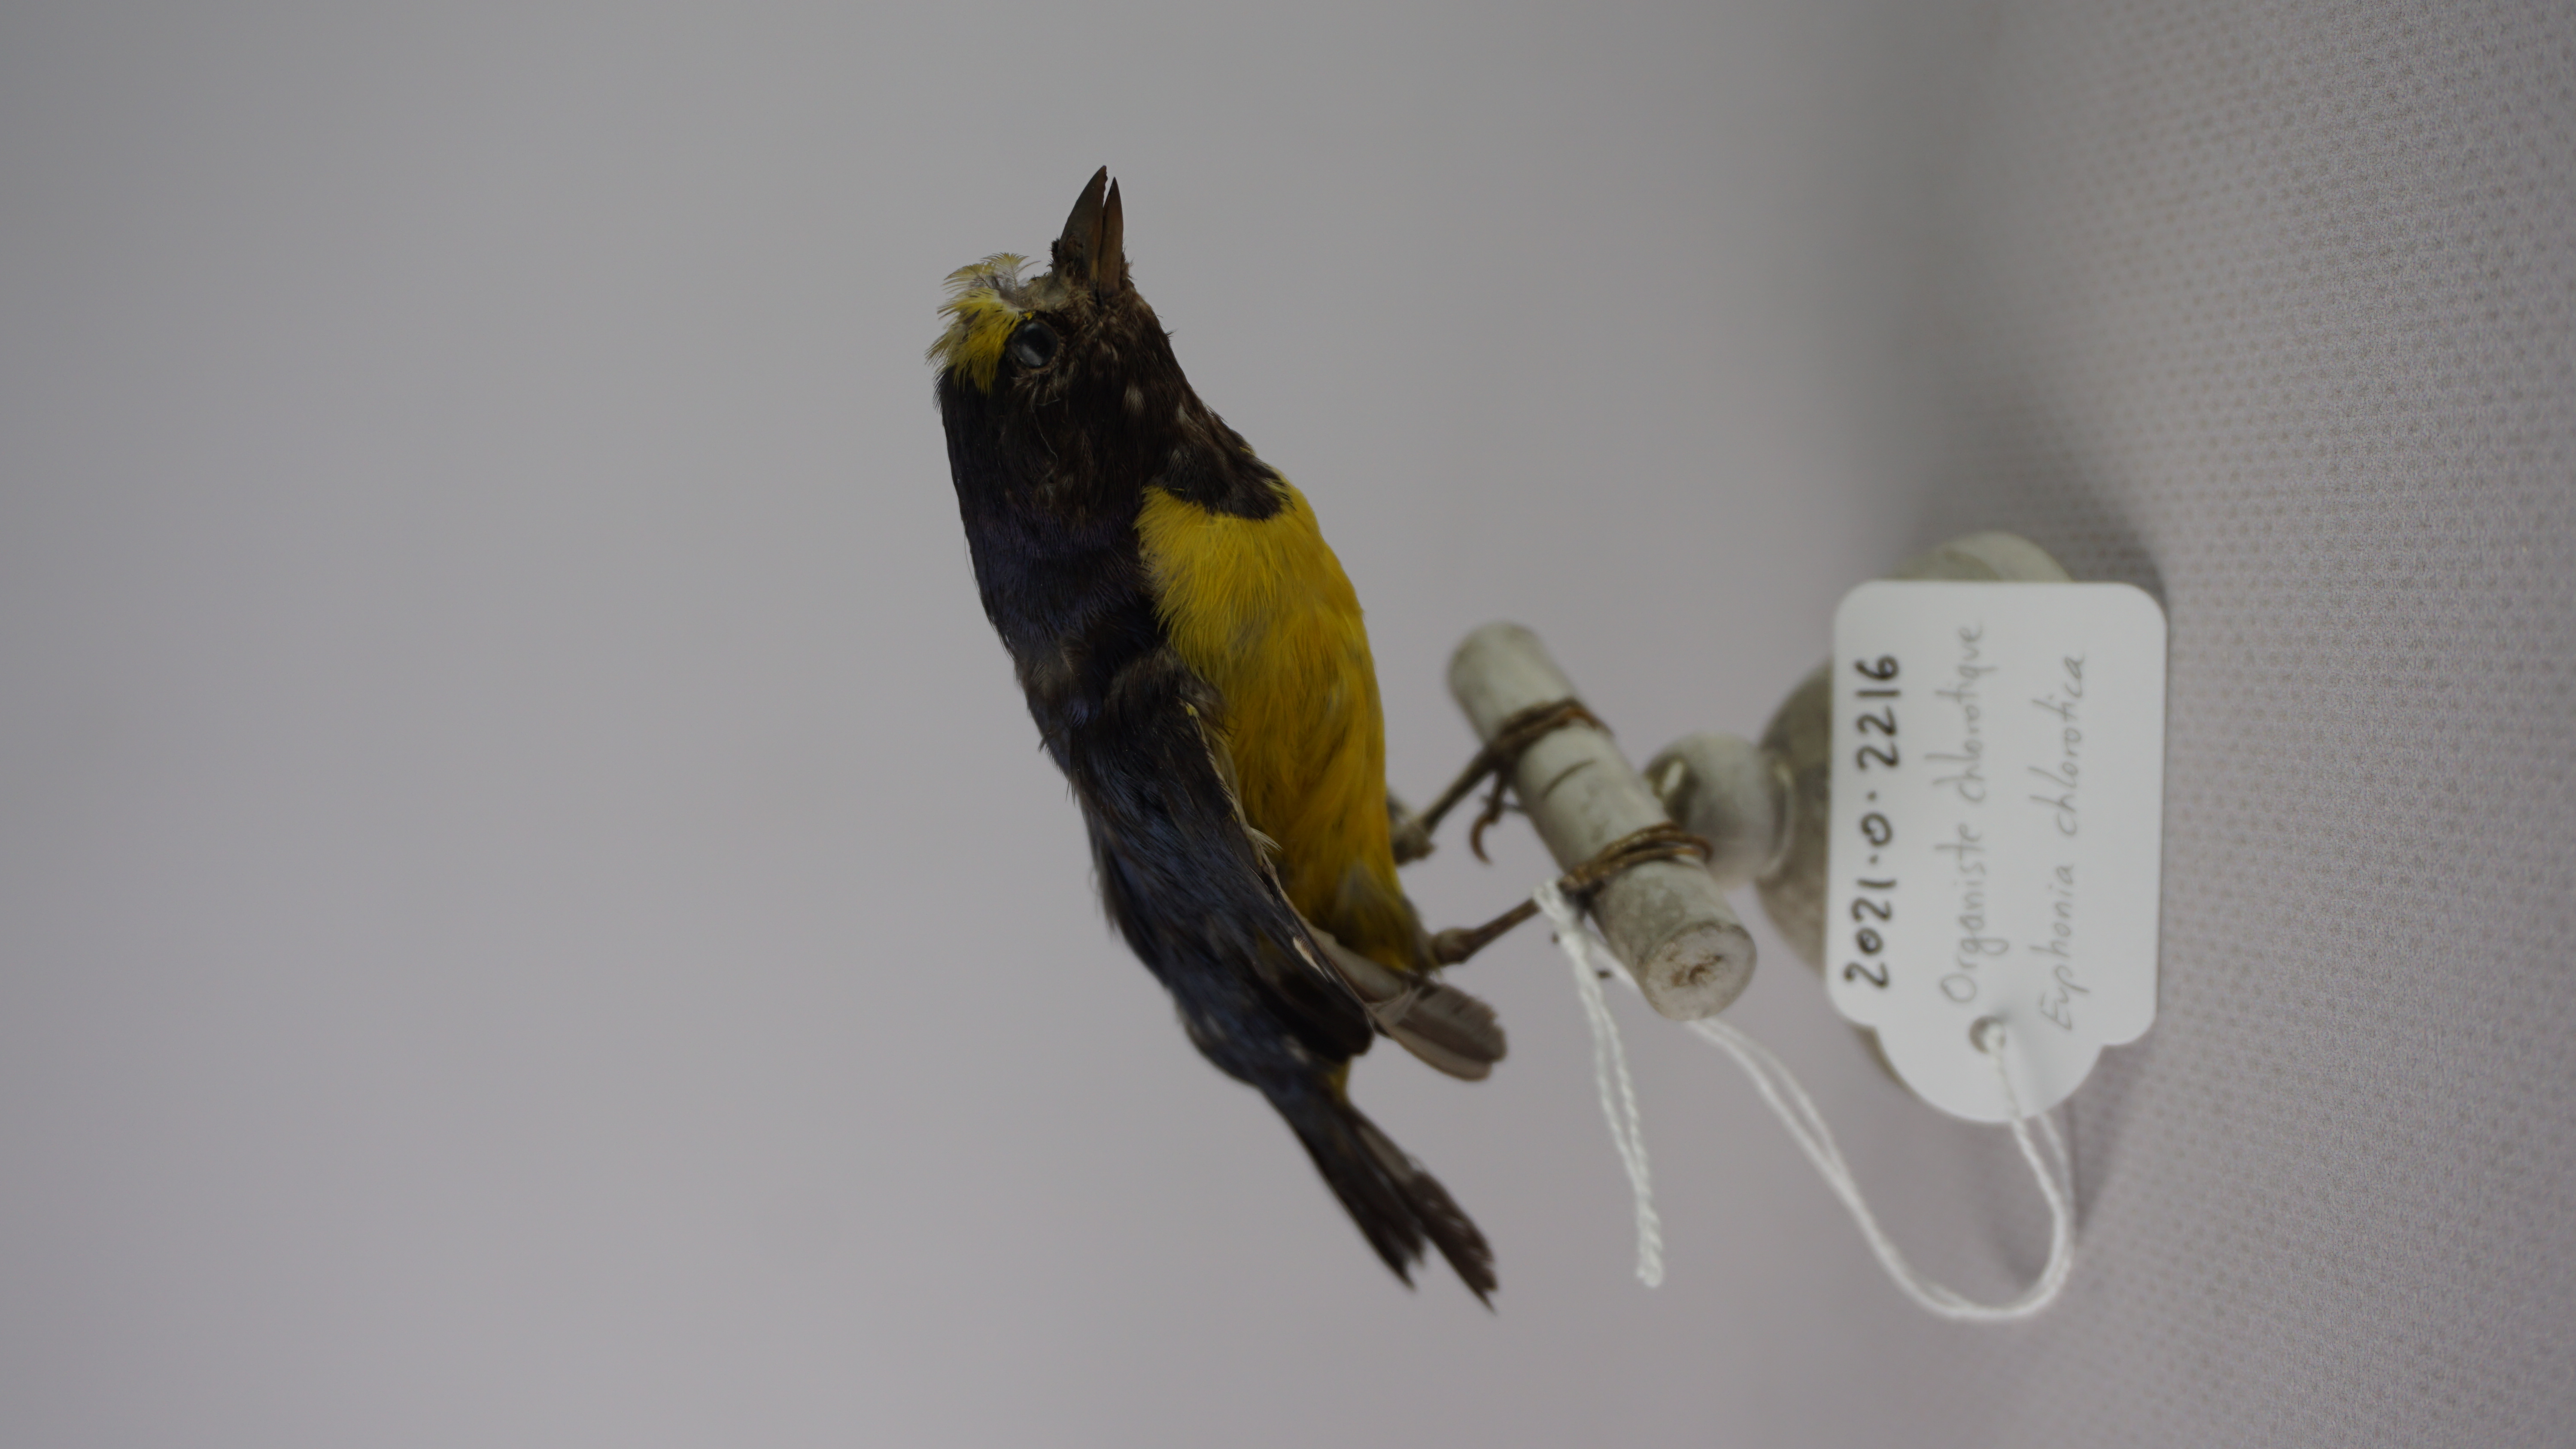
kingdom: Animalia
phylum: Chordata
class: Aves
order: Passeriformes
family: Fringillidae
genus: Euphonia
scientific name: Euphonia chlorotica
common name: Purple-throated euphonia
